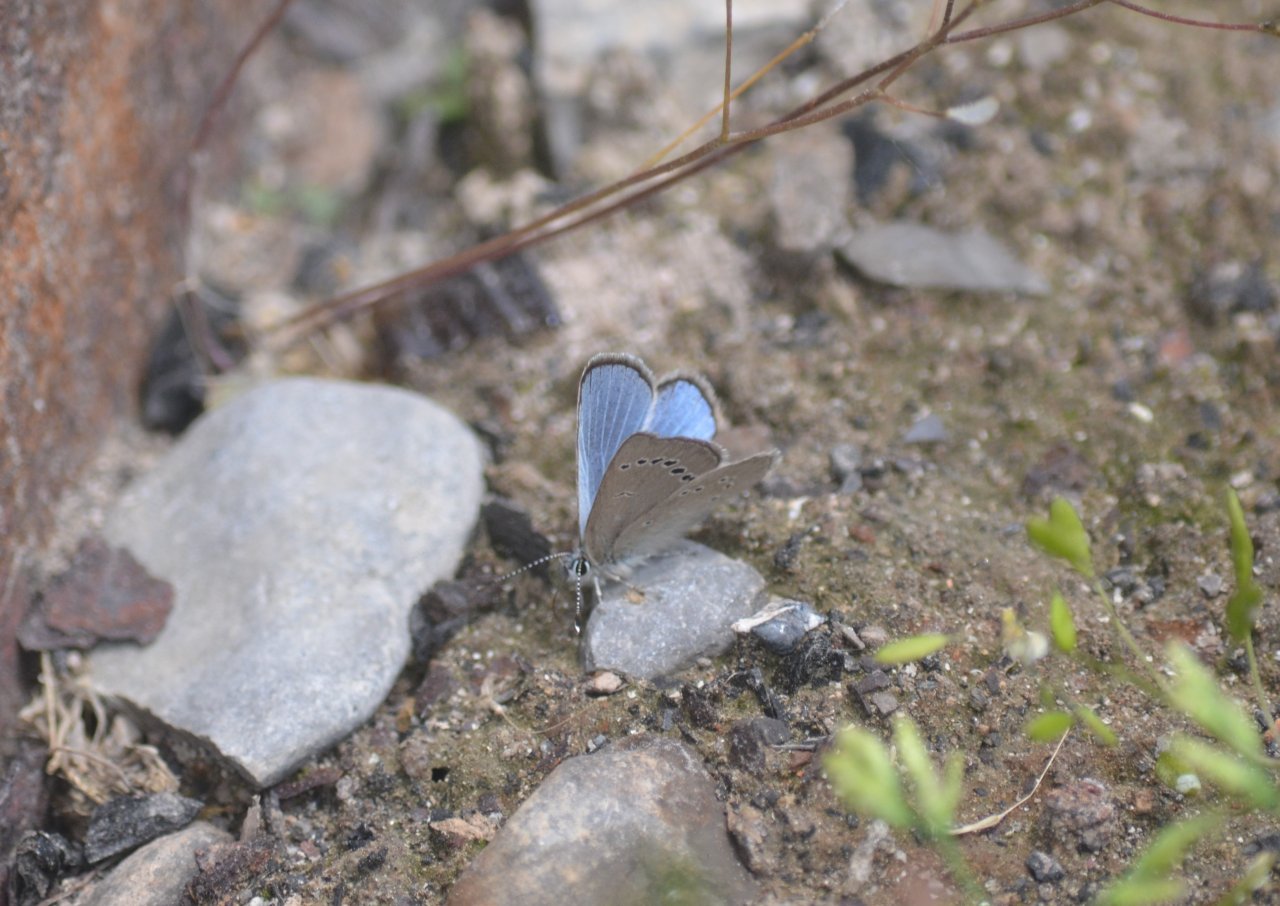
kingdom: Animalia
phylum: Arthropoda
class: Insecta
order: Lepidoptera
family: Lycaenidae
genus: Glaucopsyche
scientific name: Glaucopsyche lygdamus
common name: Silvery Blue
